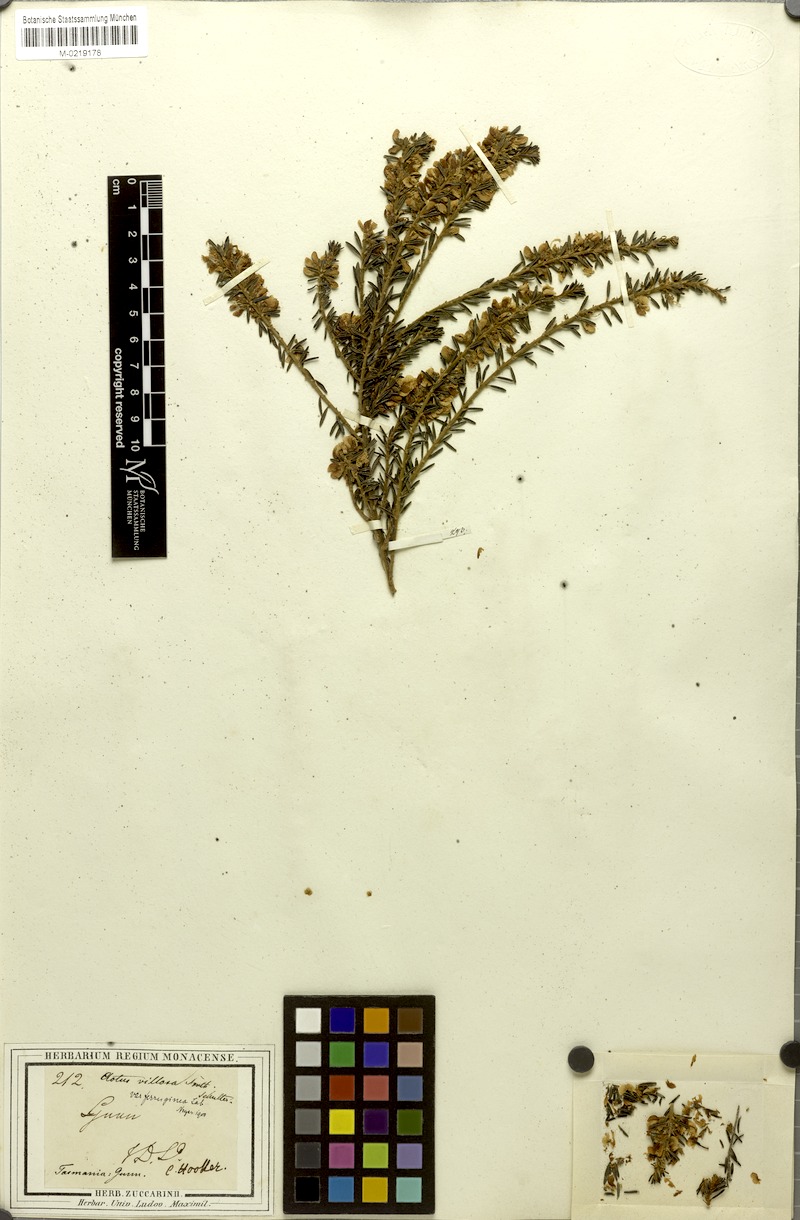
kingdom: Plantae
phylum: Tracheophyta
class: Magnoliopsida
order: Fabales
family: Fabaceae
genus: Aotus
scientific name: Aotus ericoides
